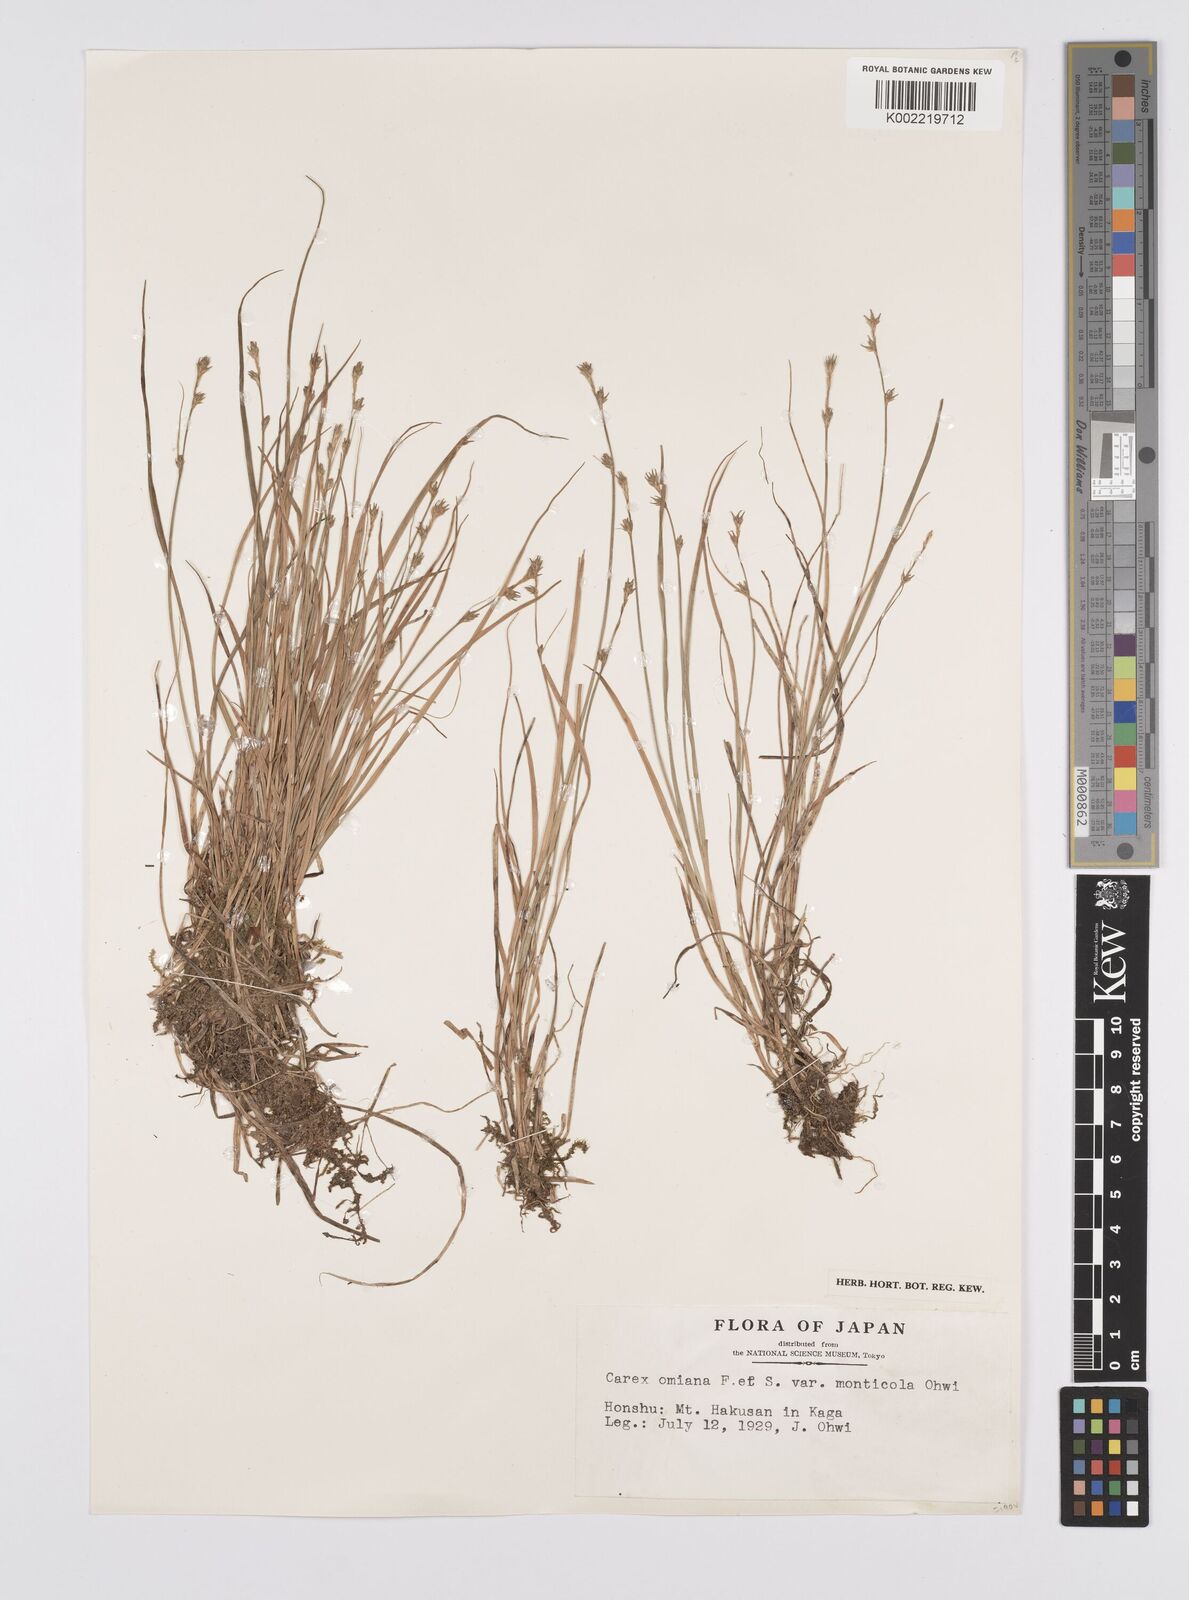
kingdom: Plantae
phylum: Tracheophyta
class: Liliopsida
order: Poales
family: Cyperaceae
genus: Carex
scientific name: Carex omiana
